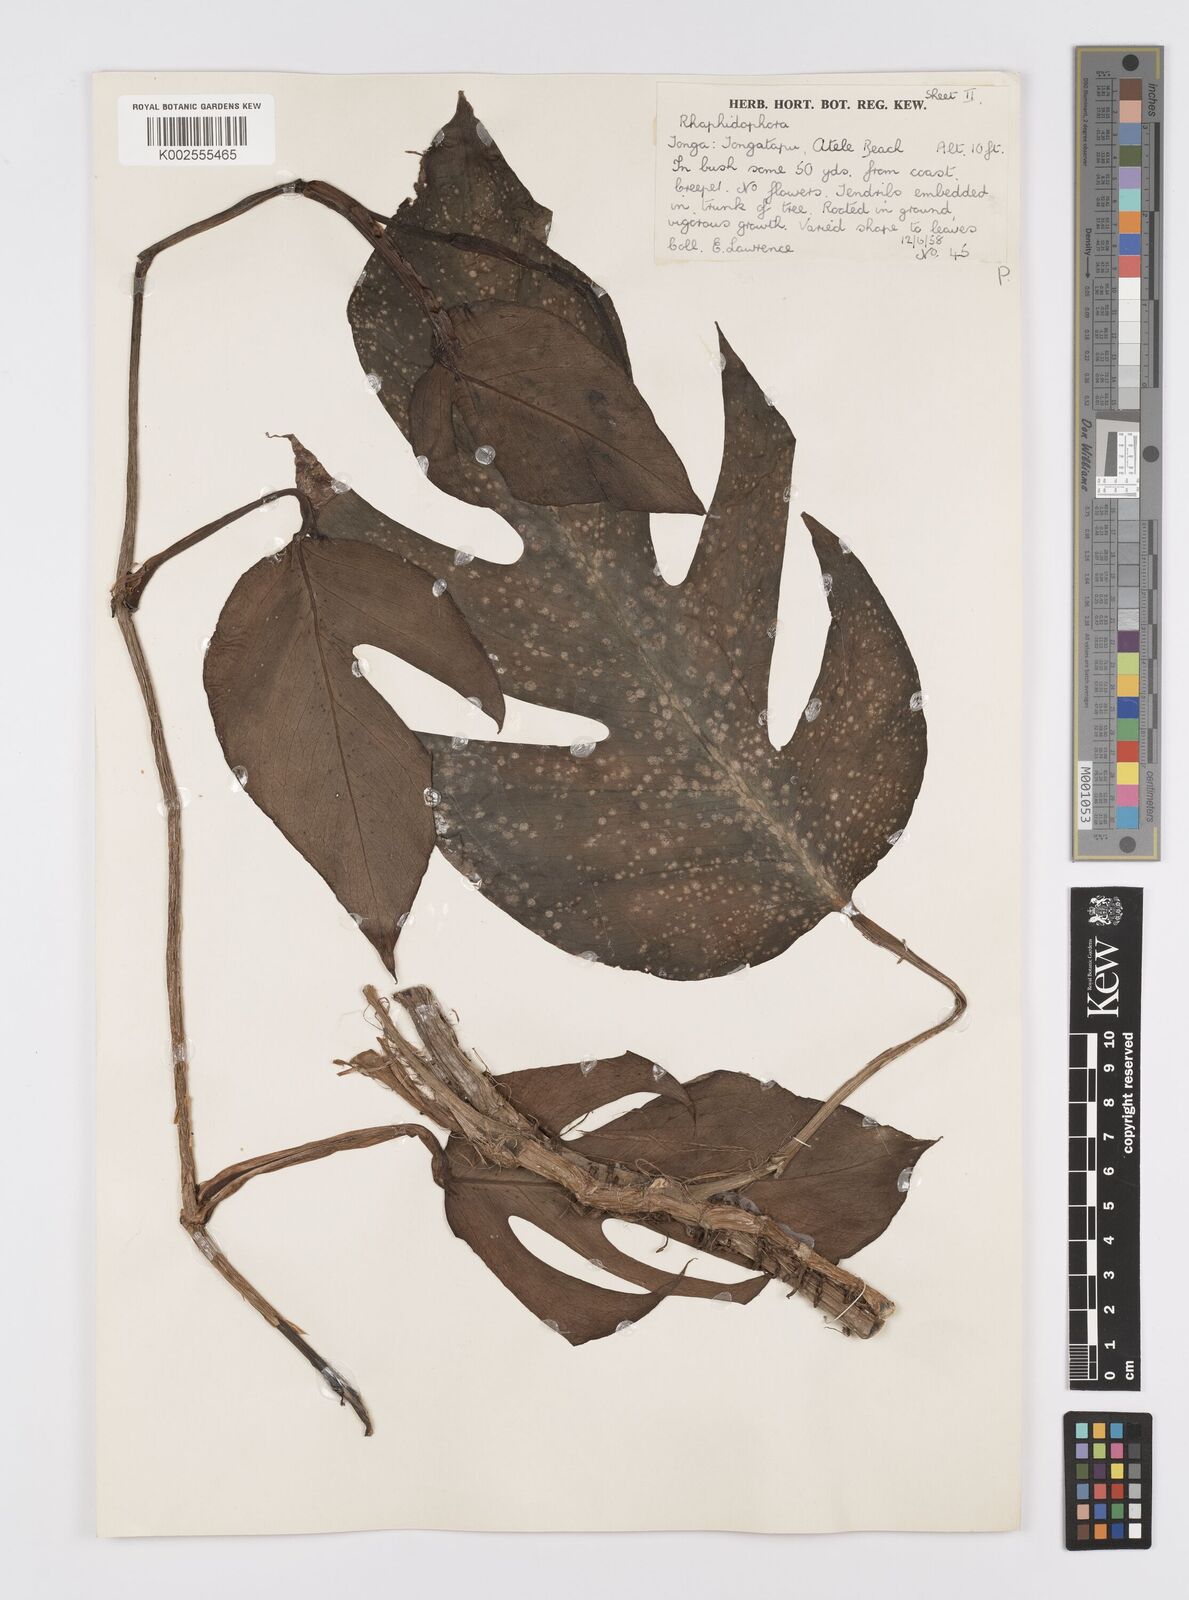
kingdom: Plantae
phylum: Tracheophyta
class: Liliopsida
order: Alismatales
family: Araceae
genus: Epipremnum
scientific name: Epipremnum pinnatum
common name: Centipede tongavine
